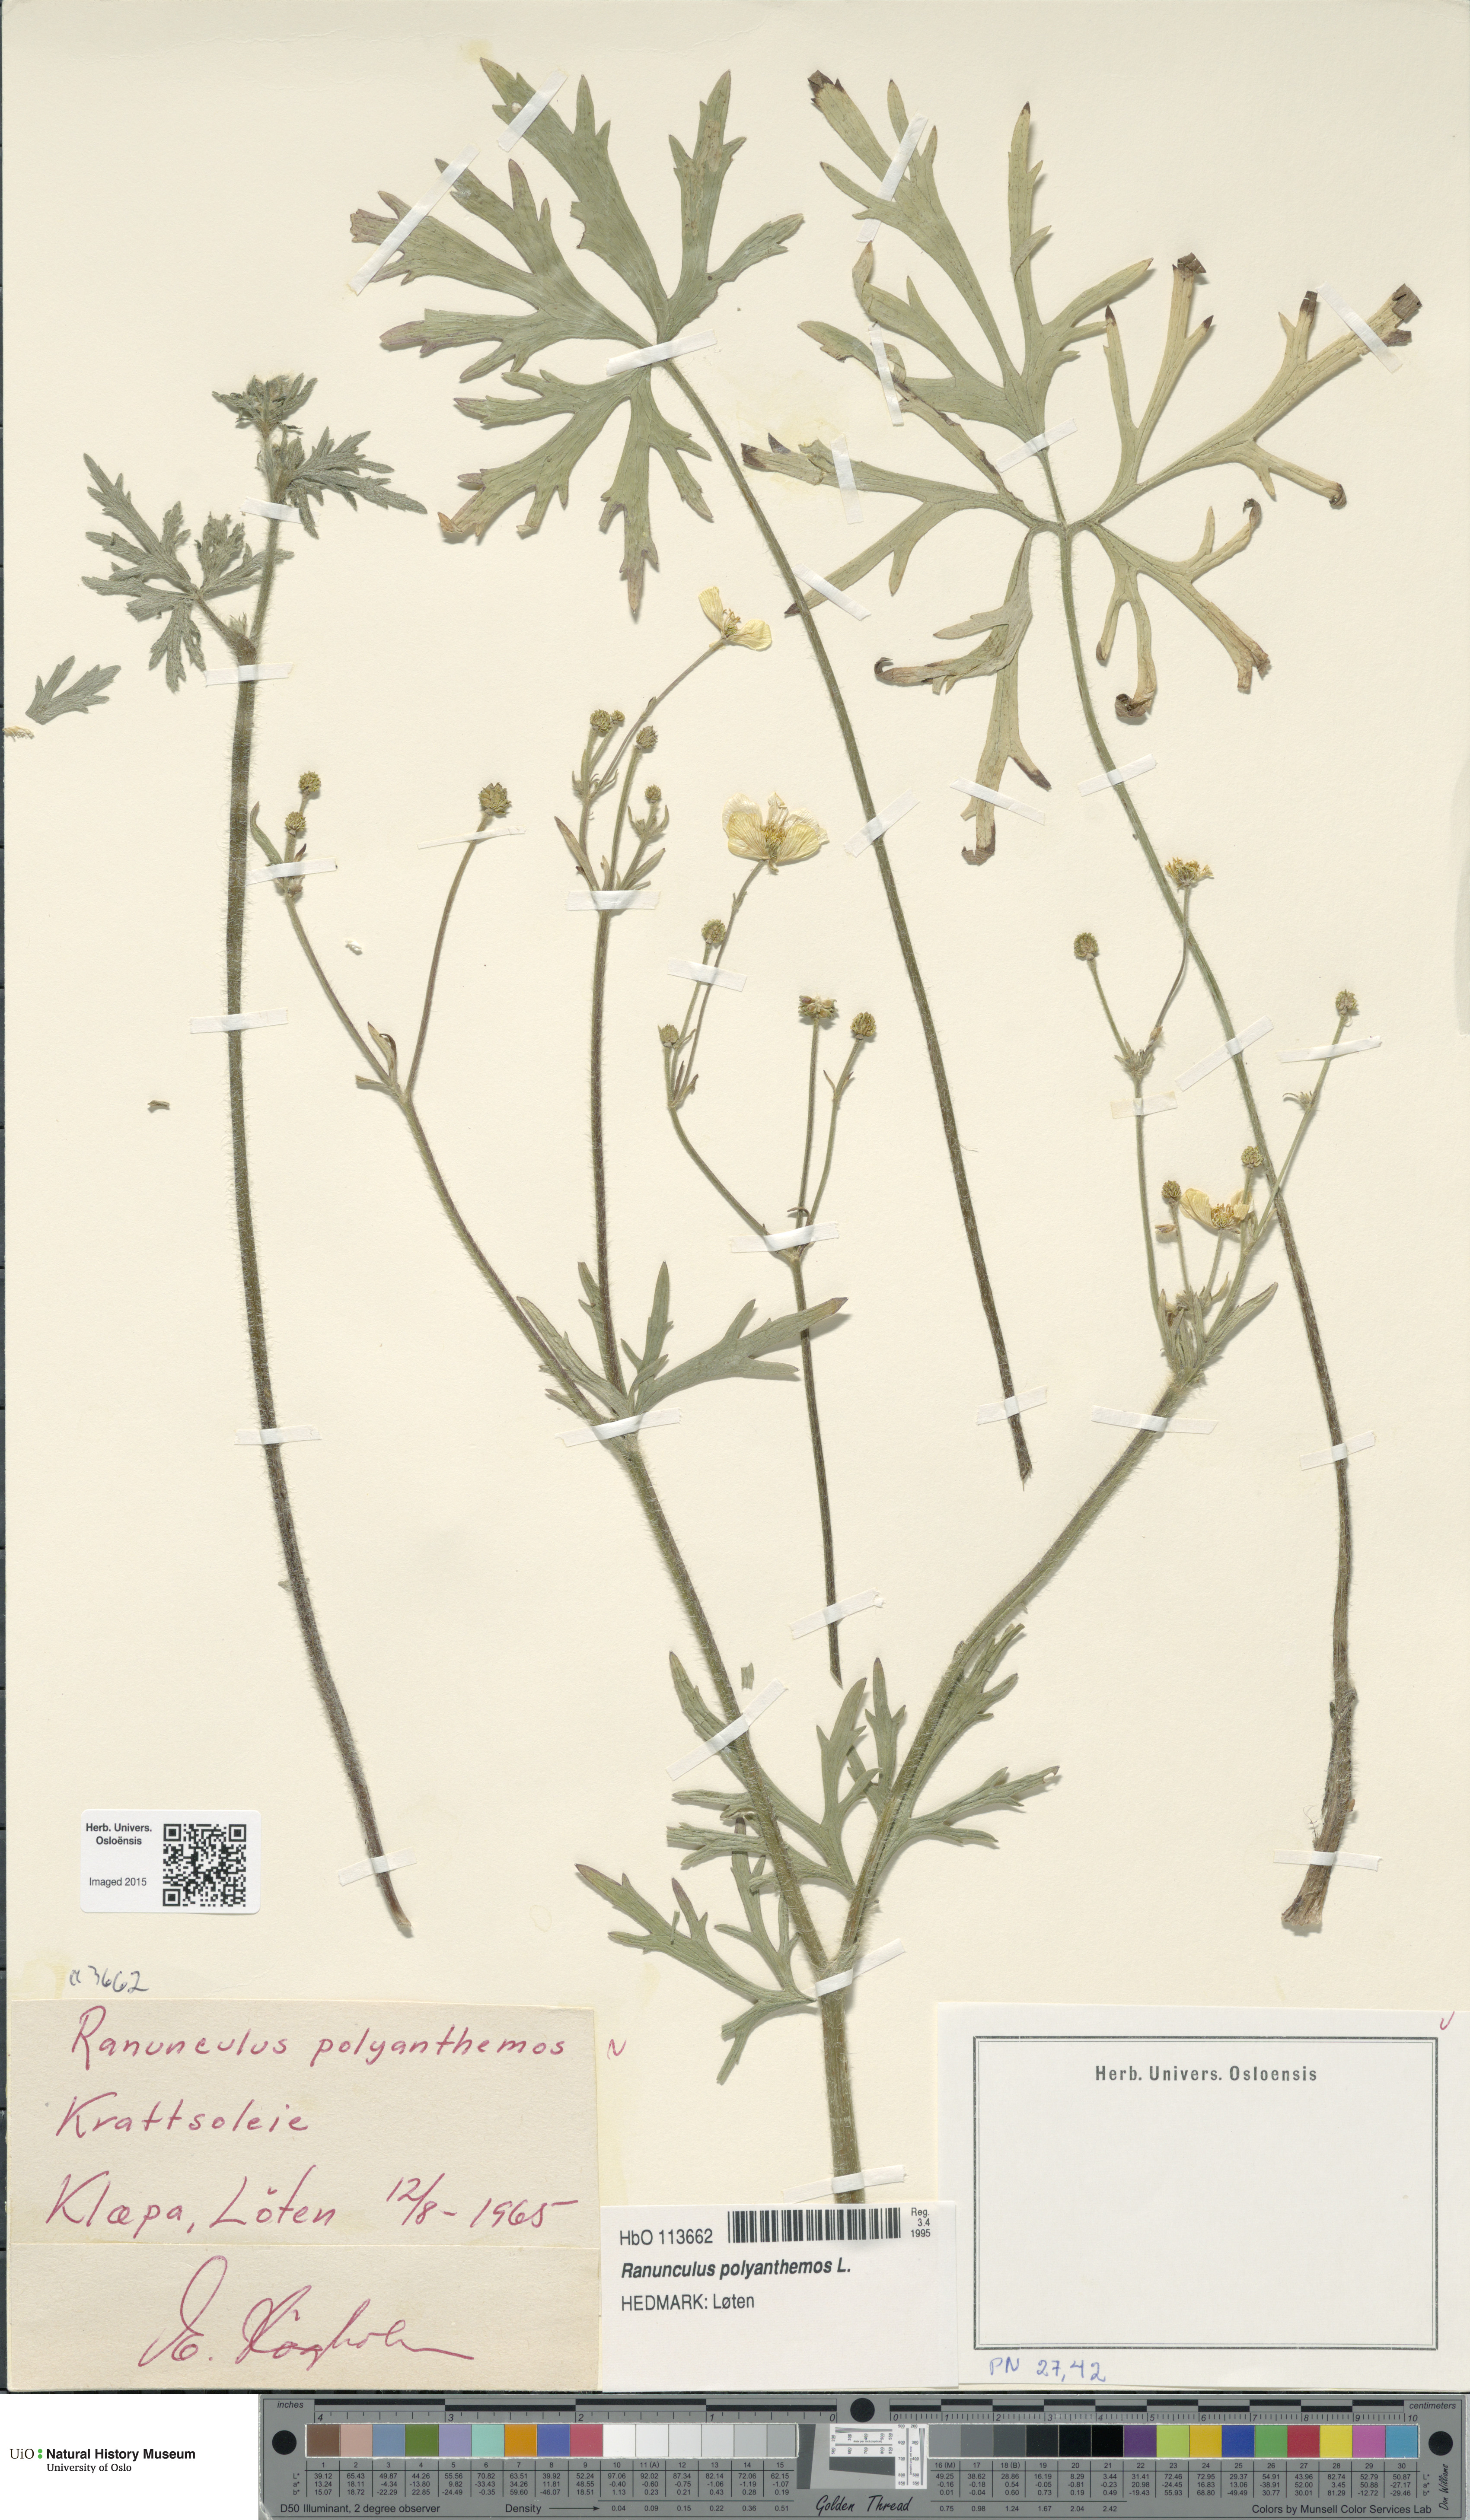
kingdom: Plantae
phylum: Tracheophyta
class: Magnoliopsida
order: Ranunculales
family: Ranunculaceae
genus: Ranunculus
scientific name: Ranunculus polyanthemos
